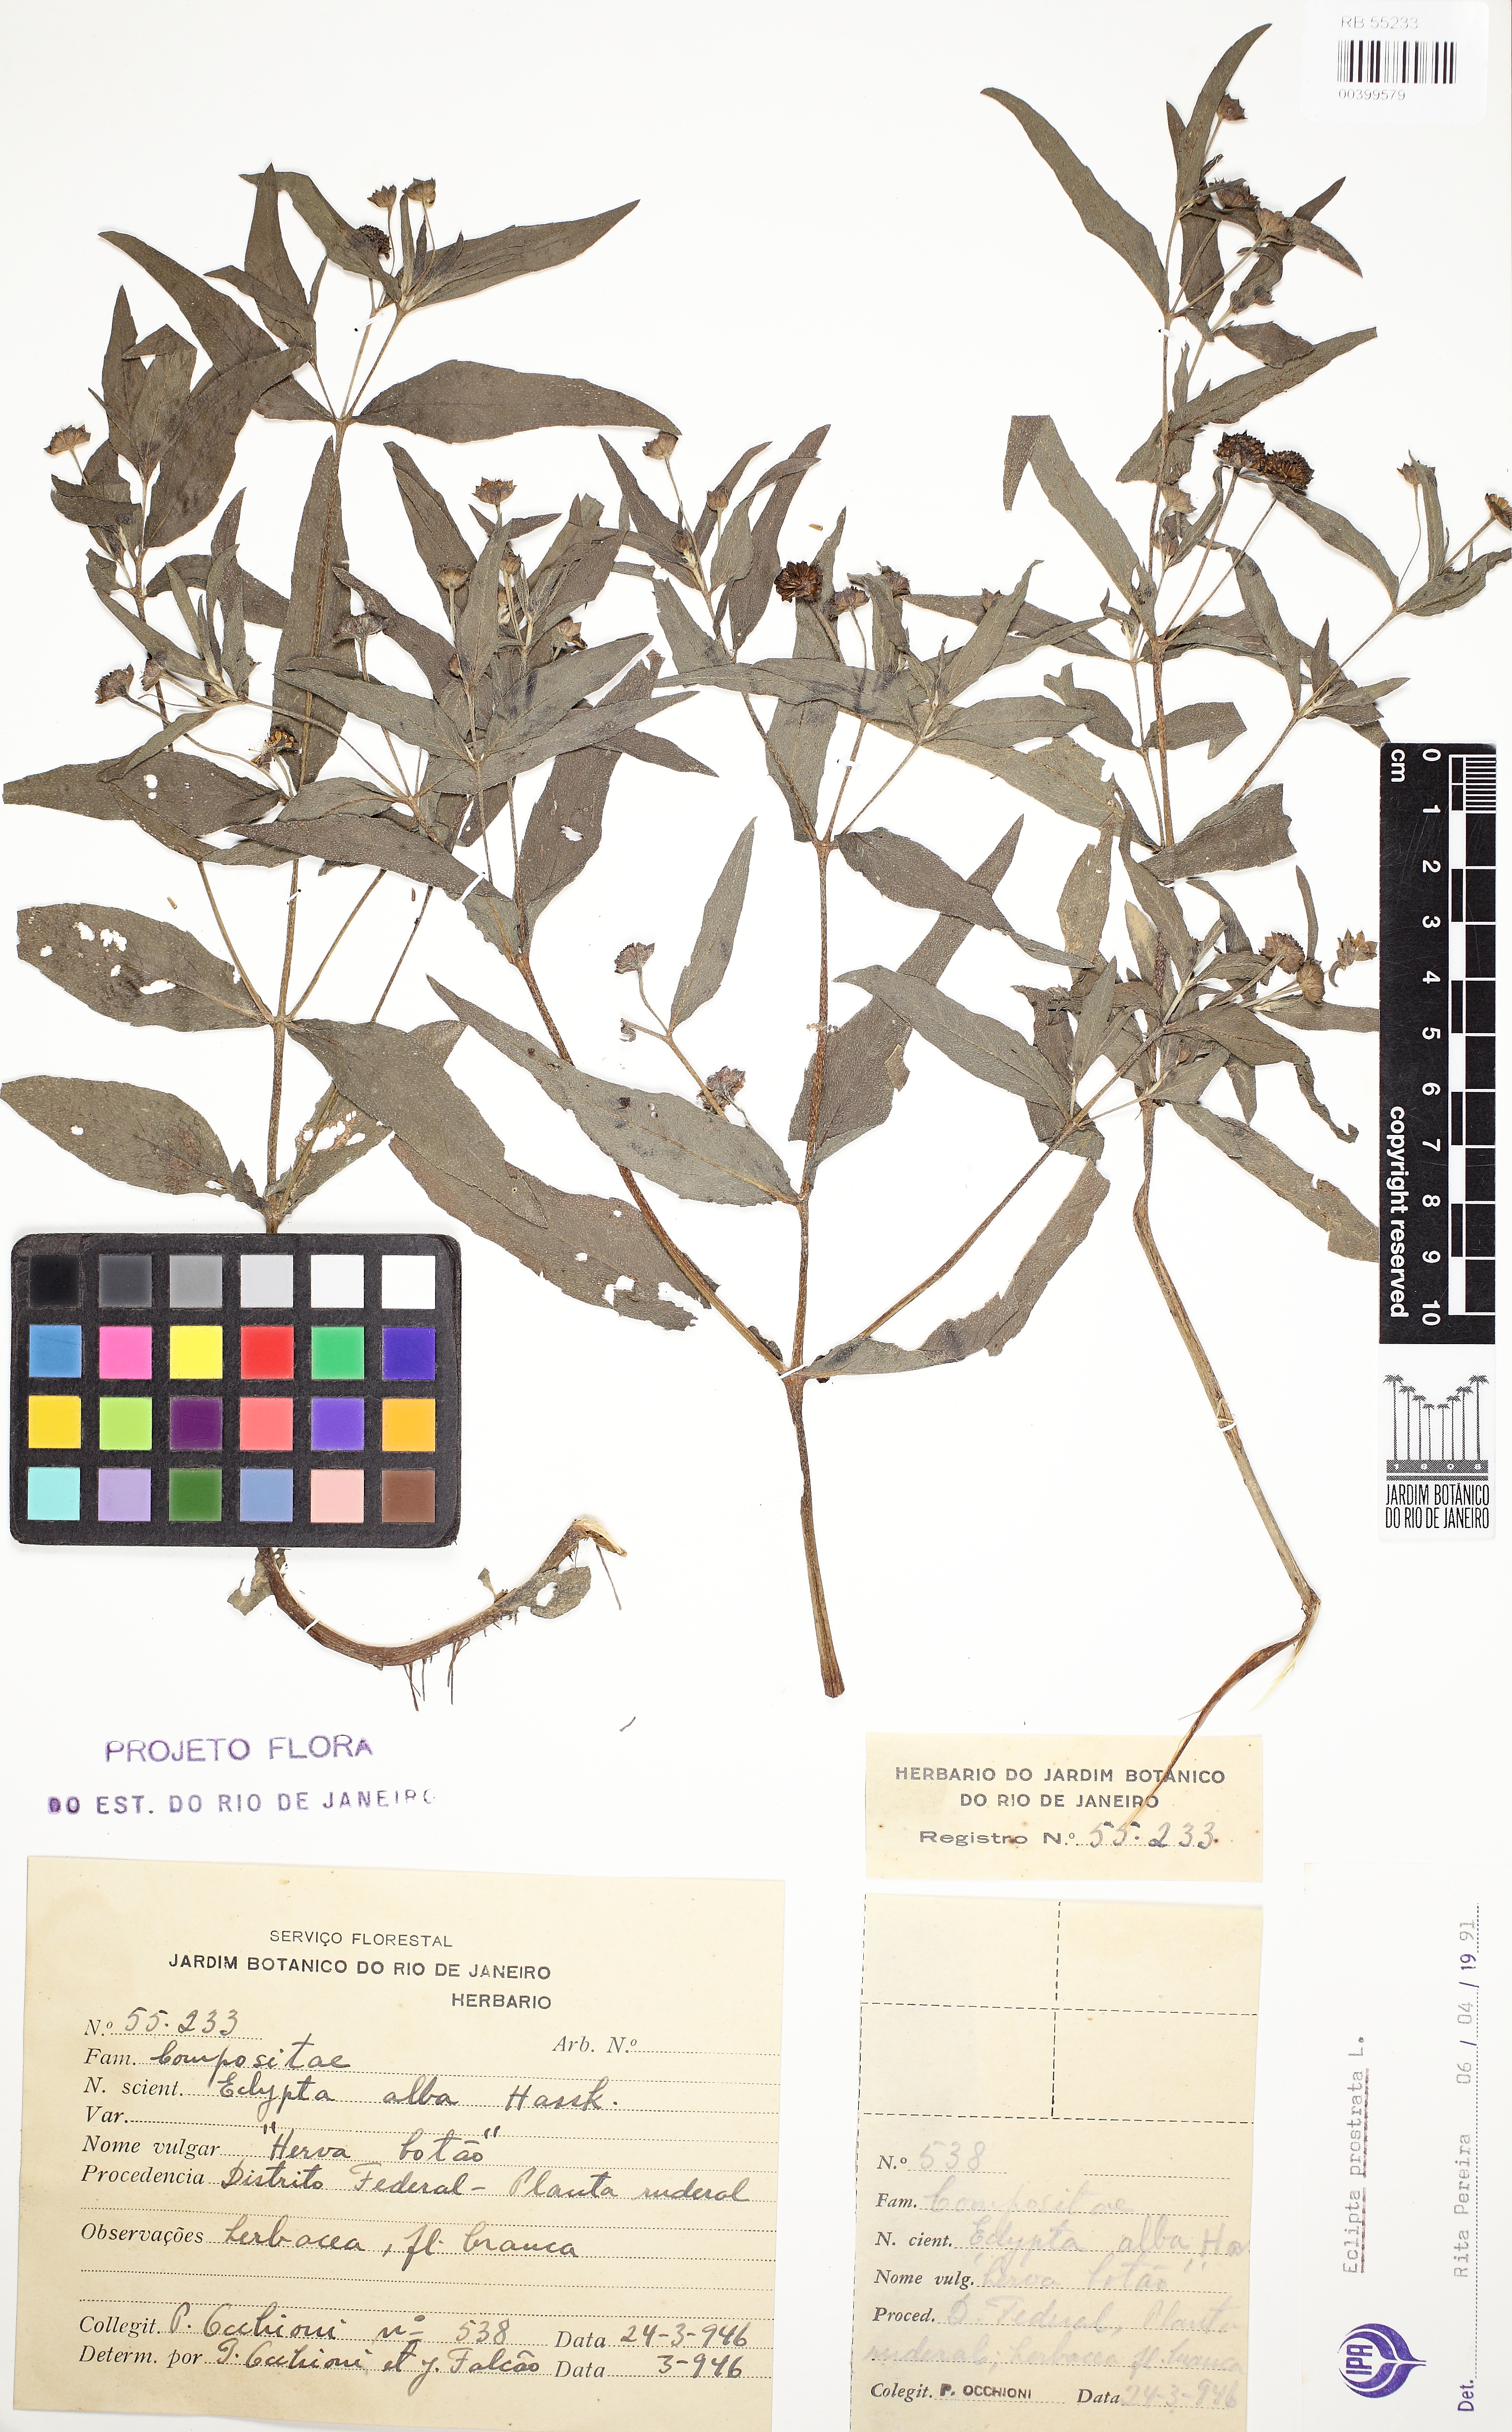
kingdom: Plantae
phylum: Tracheophyta
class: Magnoliopsida
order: Asterales
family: Asteraceae
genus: Eclipta
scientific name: Eclipta prostrata
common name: False daisy
